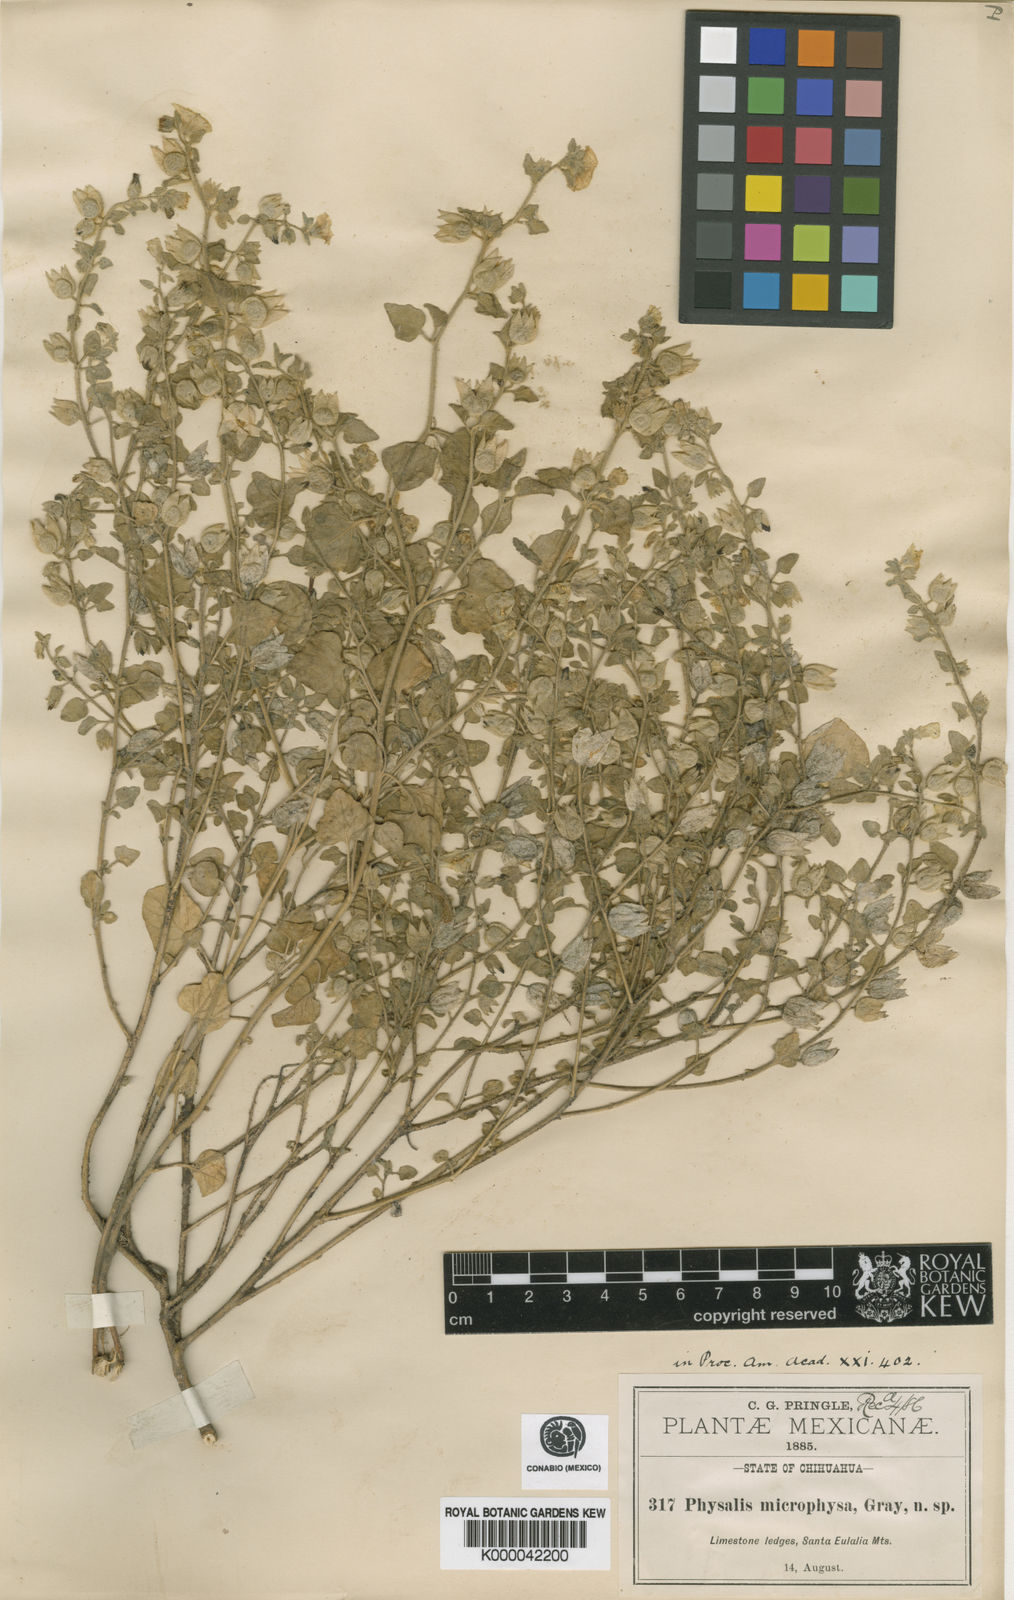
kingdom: Plantae
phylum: Tracheophyta
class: Magnoliopsida
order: Solanales
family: Solanaceae
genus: Physalis
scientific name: Physalis microphysa
